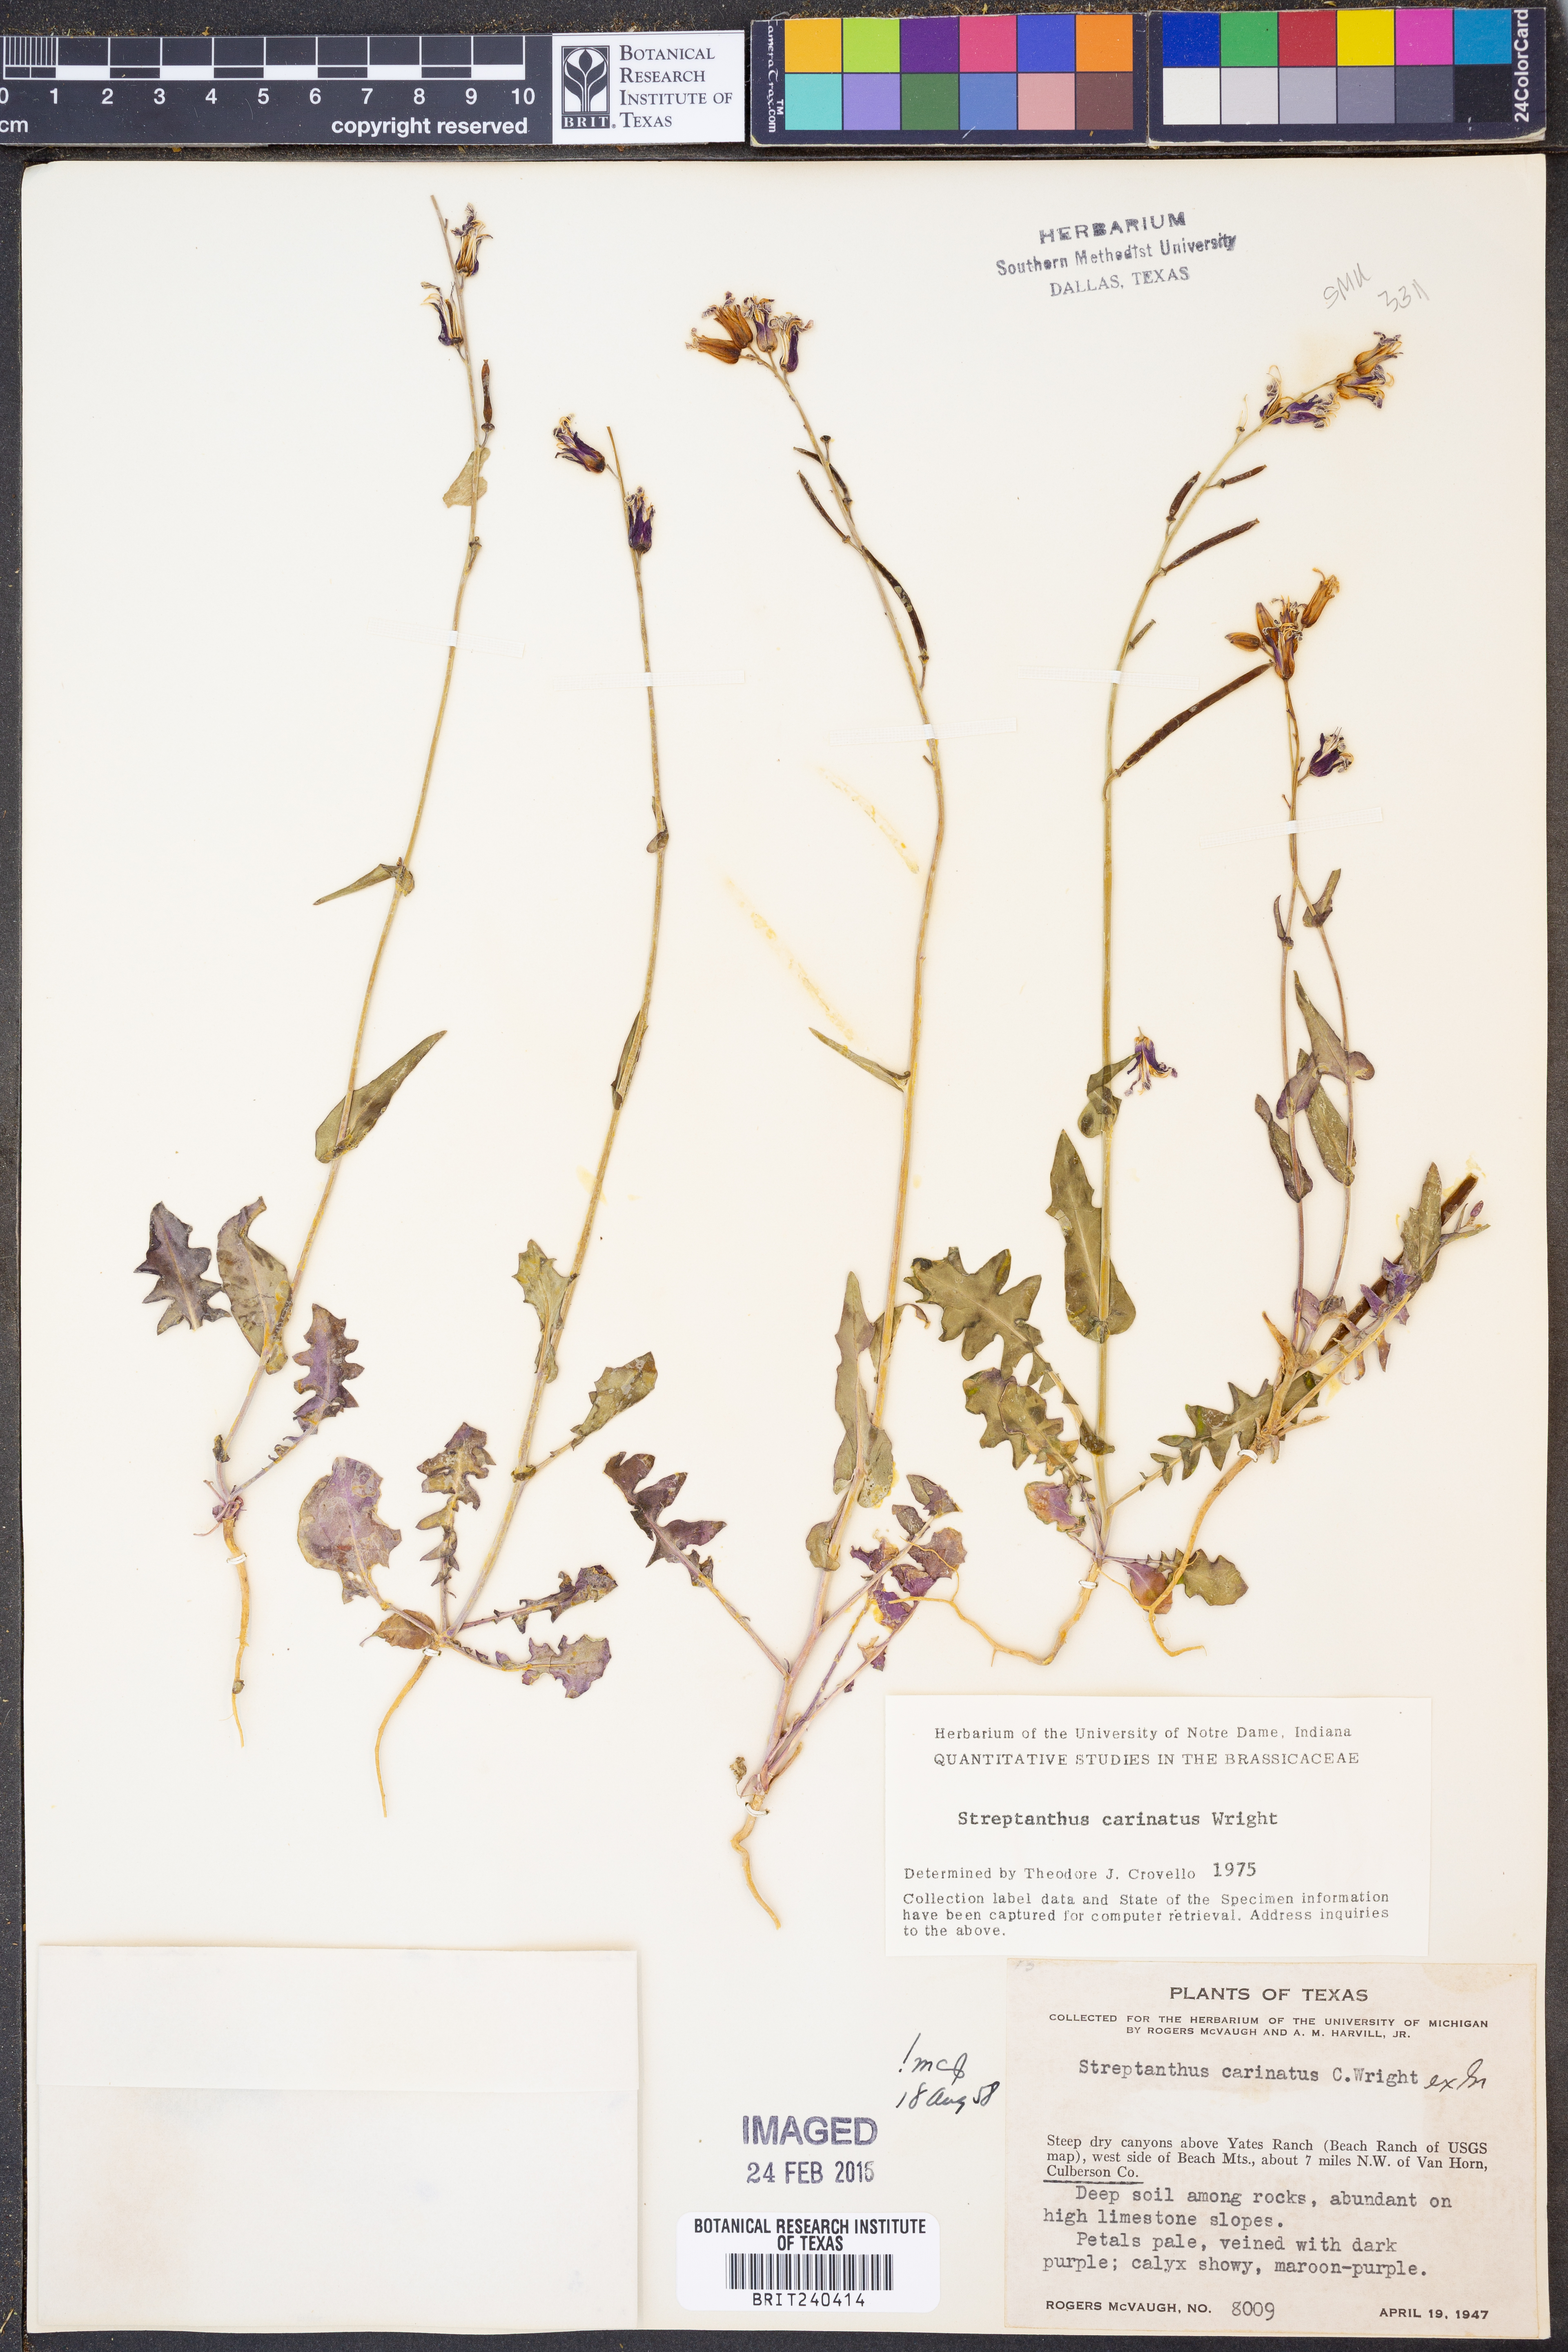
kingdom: Plantae
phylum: Tracheophyta
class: Magnoliopsida
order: Brassicales
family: Brassicaceae
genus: Streptanthus
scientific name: Streptanthus carinatus
